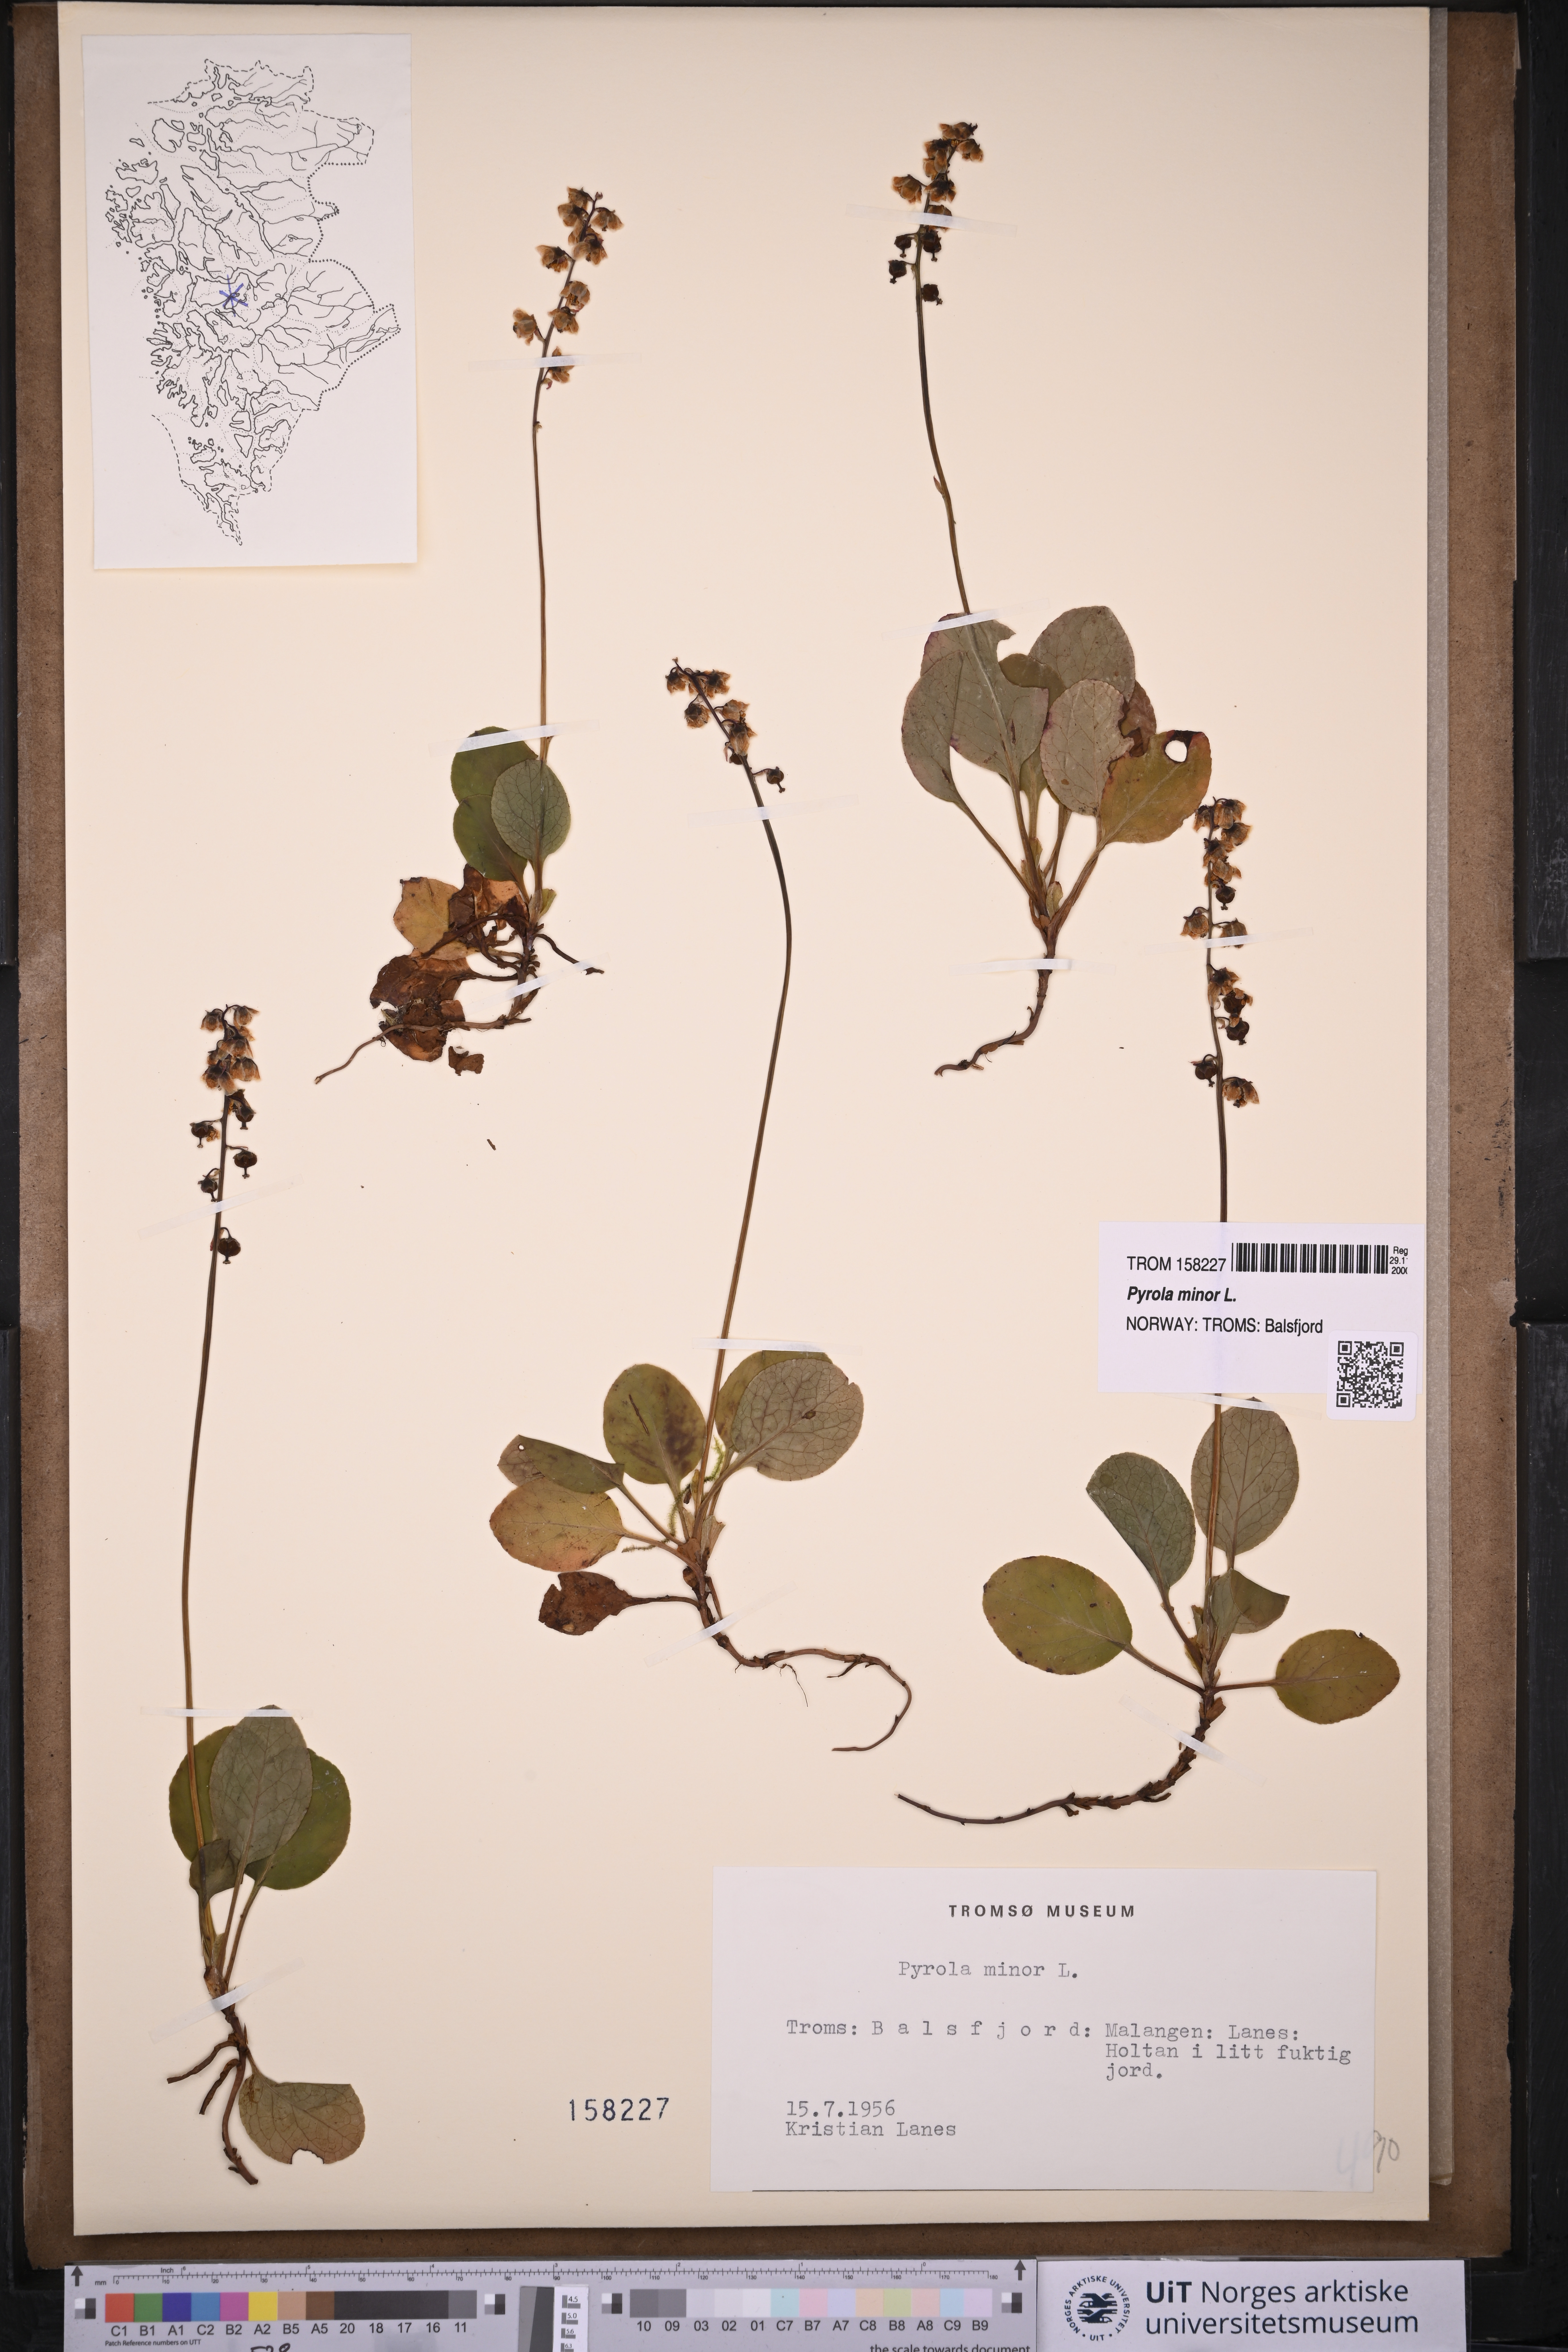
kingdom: Plantae
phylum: Tracheophyta
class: Magnoliopsida
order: Ericales
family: Ericaceae
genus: Pyrola
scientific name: Pyrola minor
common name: Common wintergreen
